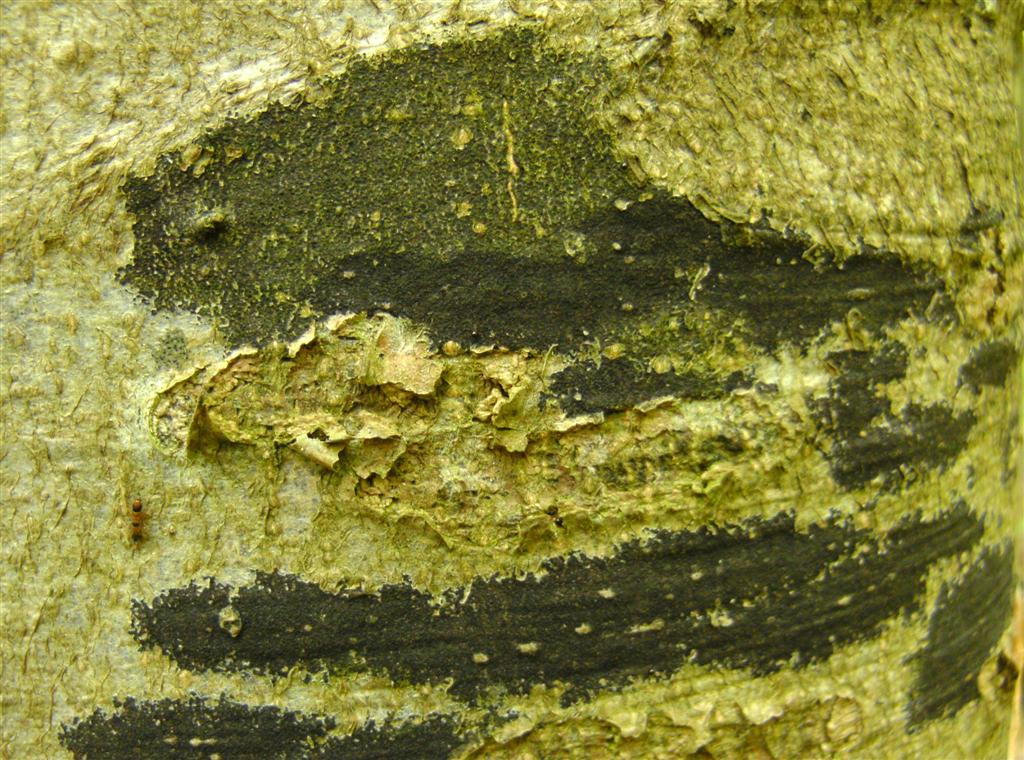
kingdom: Fungi
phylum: Ascomycota
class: Leotiomycetes
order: Rhytismatales
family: Ascodichaenaceae
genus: Ascodichaena
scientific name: Ascodichaena rugosa
